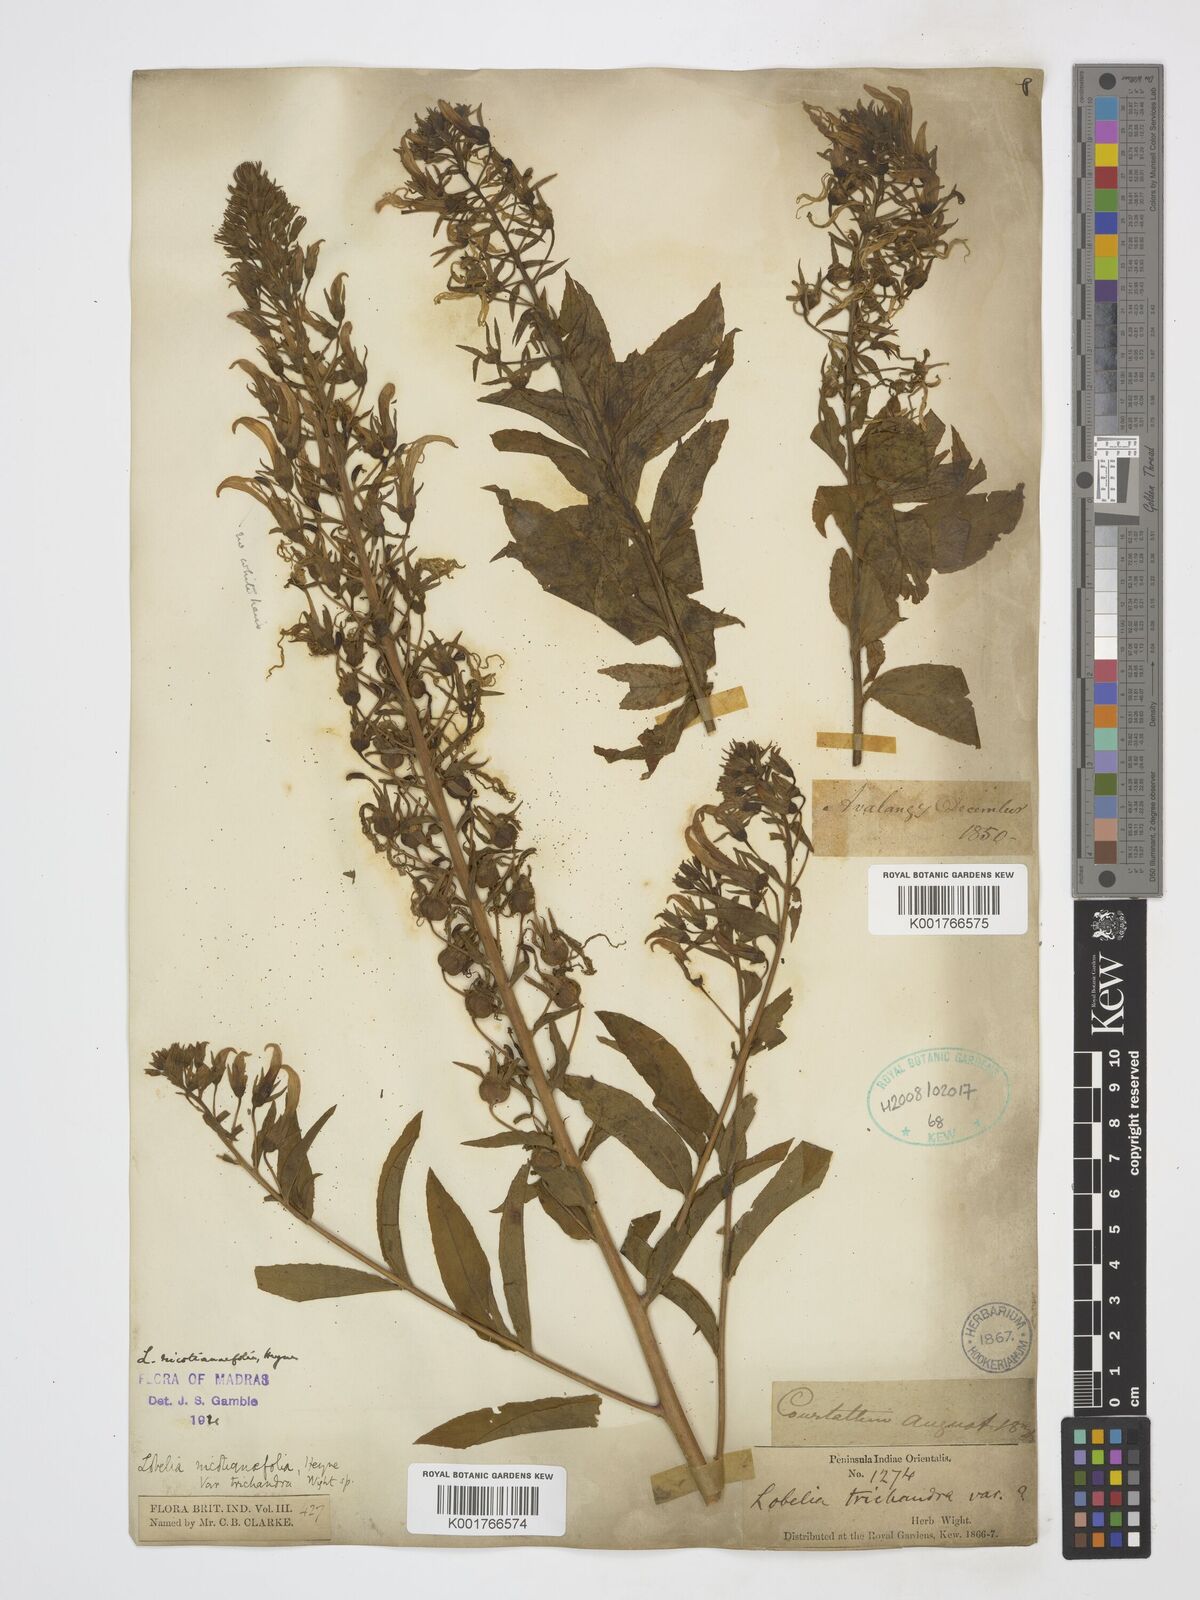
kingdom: Plantae
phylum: Tracheophyta
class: Magnoliopsida
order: Asterales
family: Campanulaceae
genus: Lobelia
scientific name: Lobelia nicotianifolia
